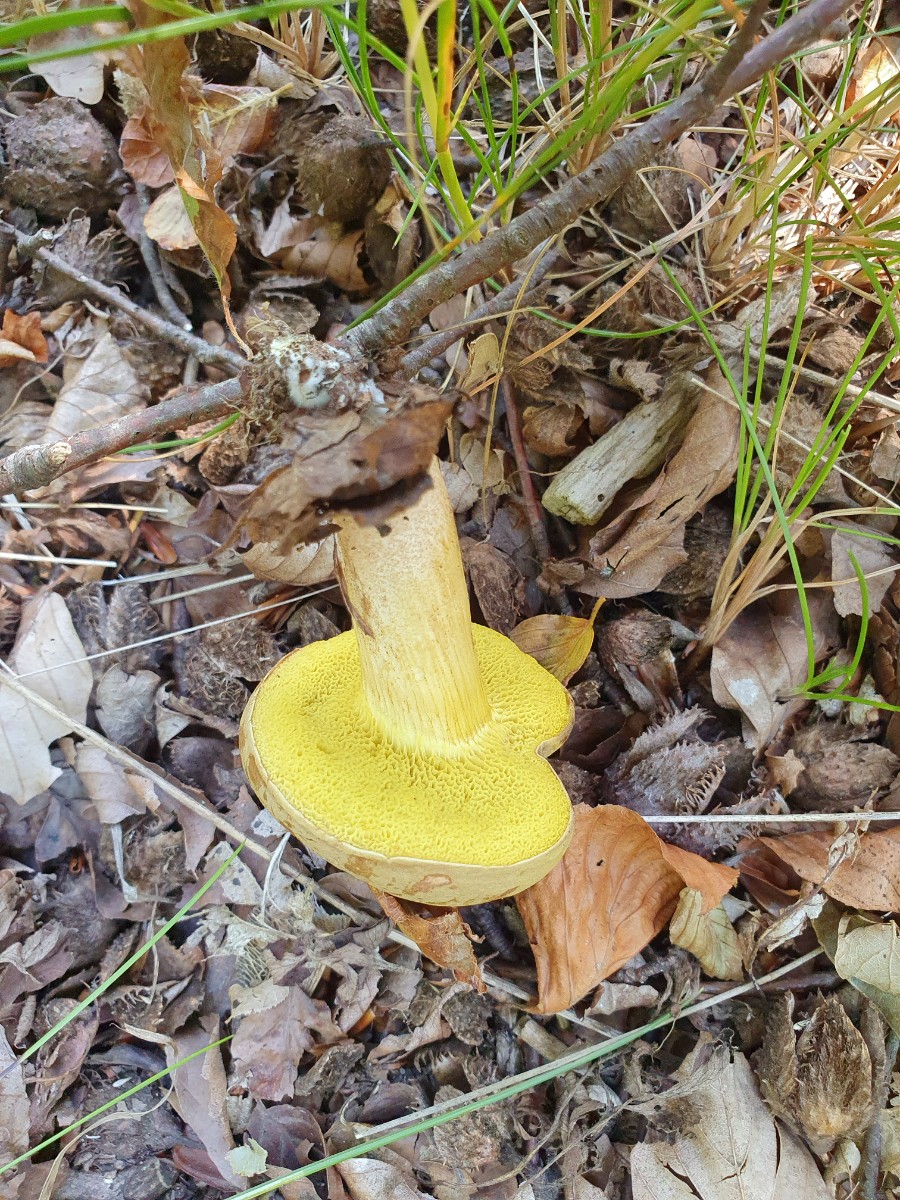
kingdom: Fungi
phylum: Basidiomycota
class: Agaricomycetes
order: Boletales
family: Boletaceae
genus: Xerocomus
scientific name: Xerocomus subtomentosus
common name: filtet rørhat
